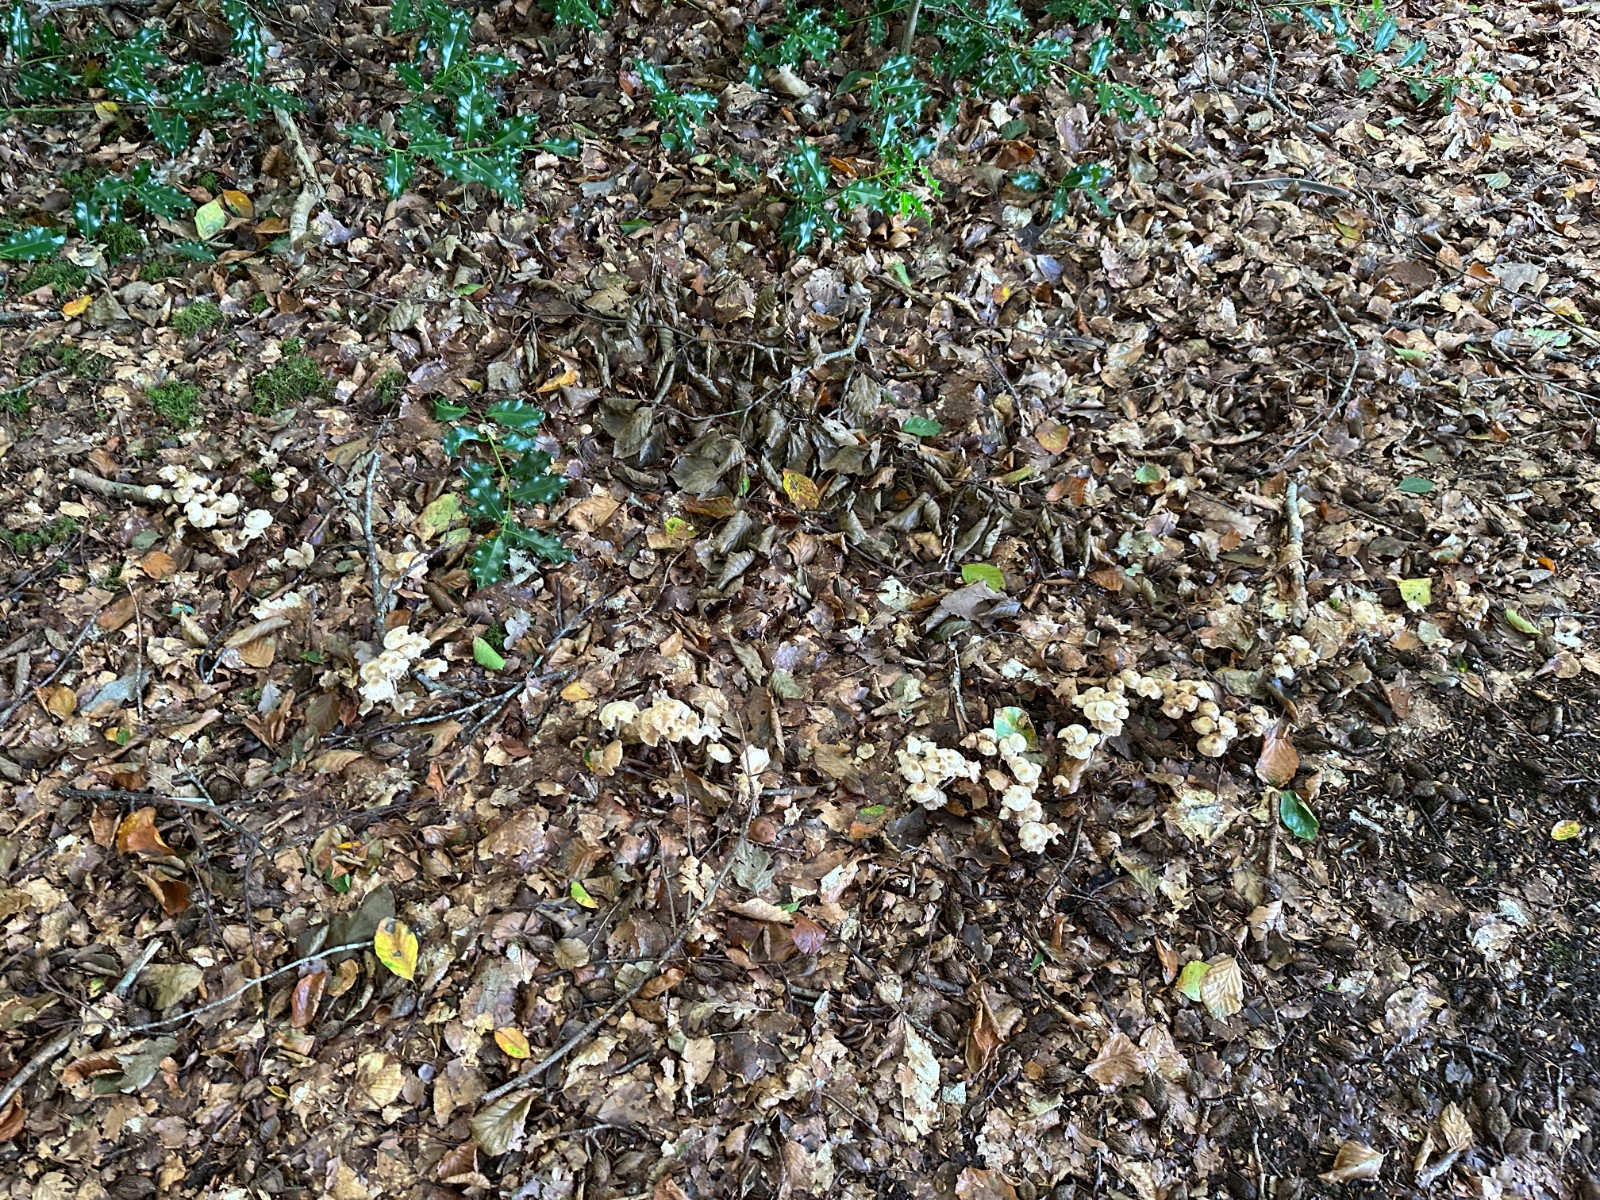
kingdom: Fungi
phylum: Basidiomycota
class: Agaricomycetes
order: Agaricales
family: Omphalotaceae
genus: Collybiopsis
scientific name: Collybiopsis confluens
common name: knippe-fladhat
